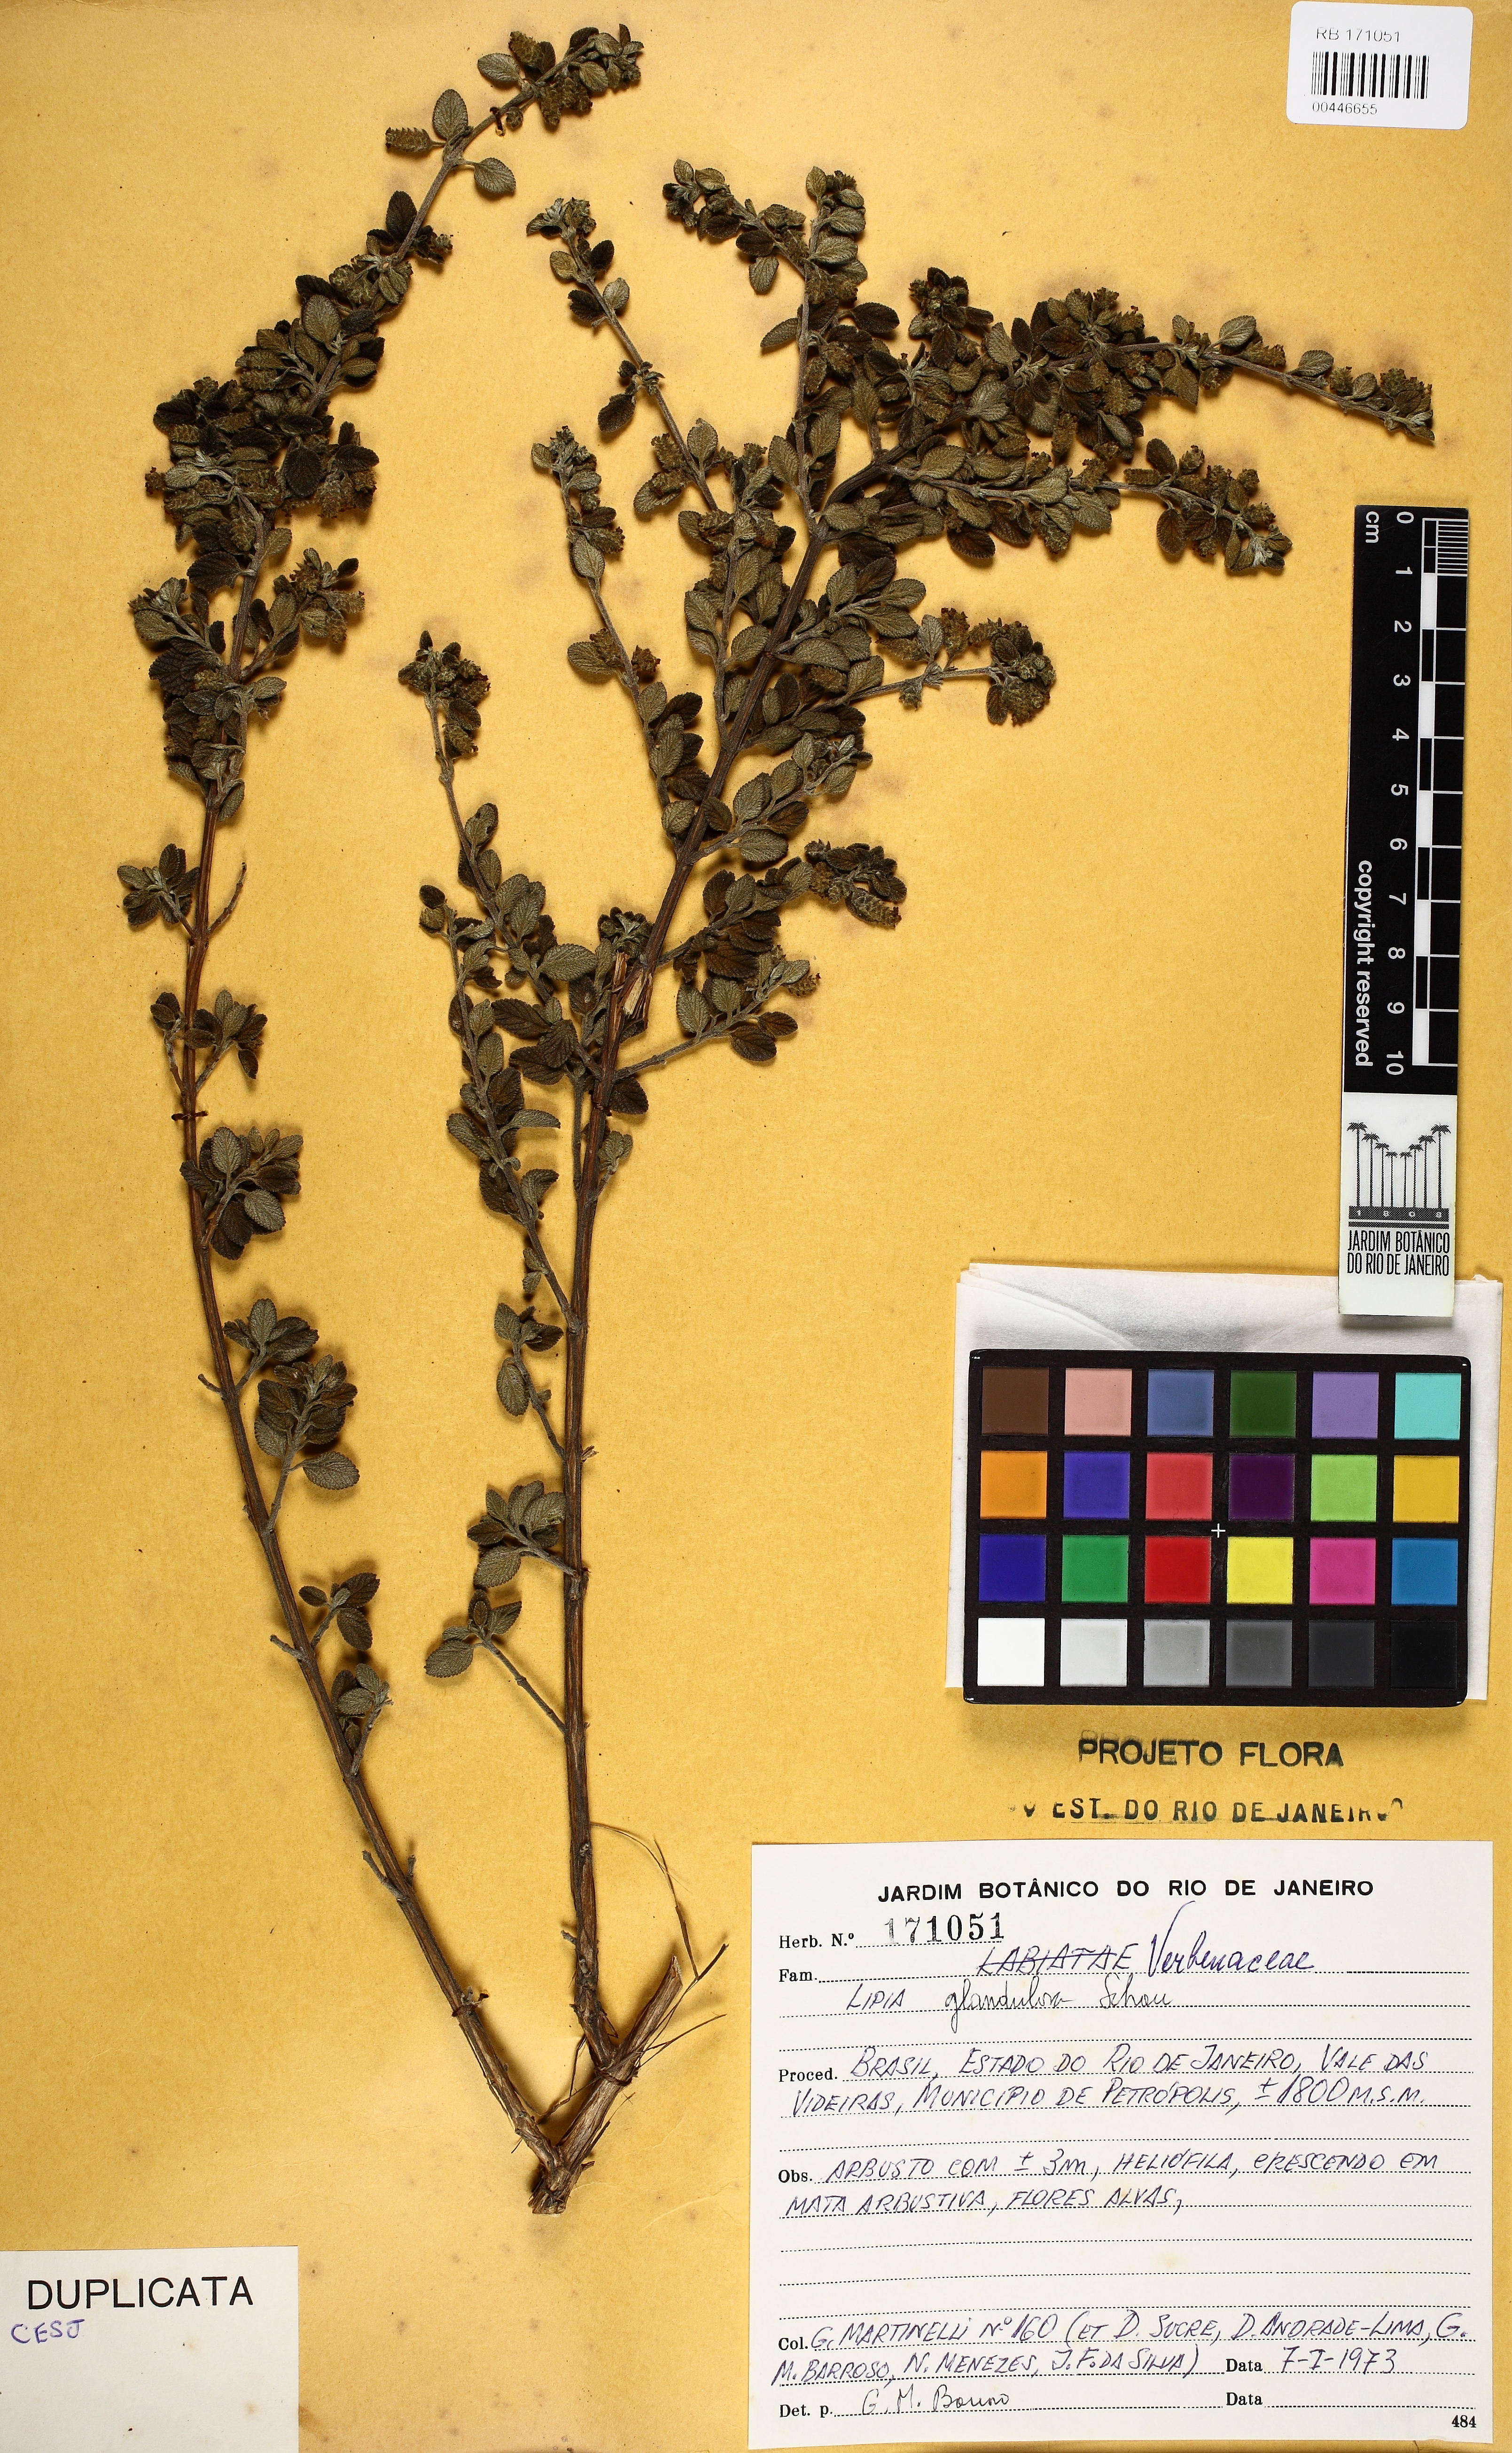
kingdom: Plantae
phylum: Tracheophyta
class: Magnoliopsida
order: Lamiales
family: Verbenaceae
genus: Lippia
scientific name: Lippia origanoides
